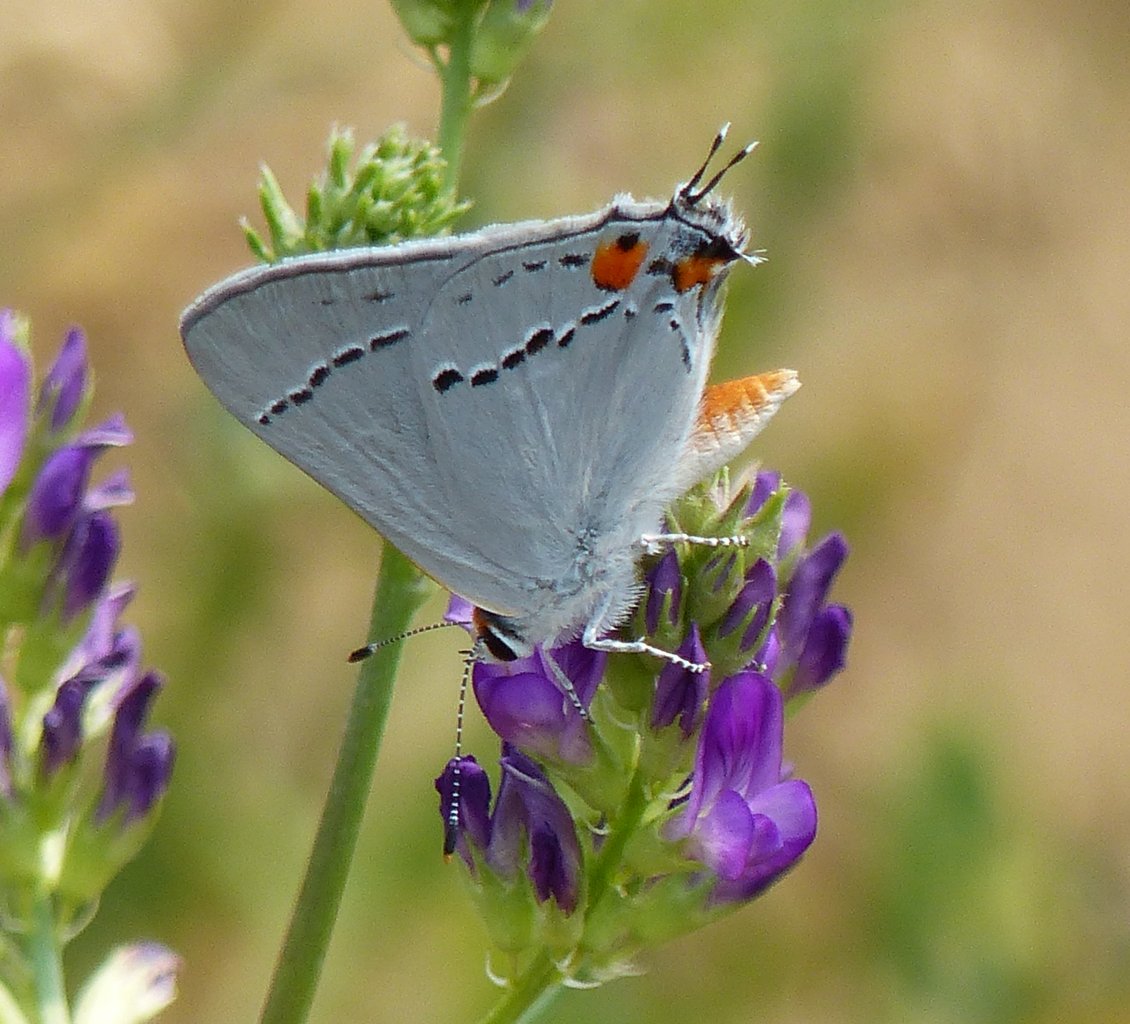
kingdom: Animalia
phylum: Arthropoda
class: Insecta
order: Lepidoptera
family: Lycaenidae
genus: Strymon
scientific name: Strymon melinus
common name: Gray Hairstreak
